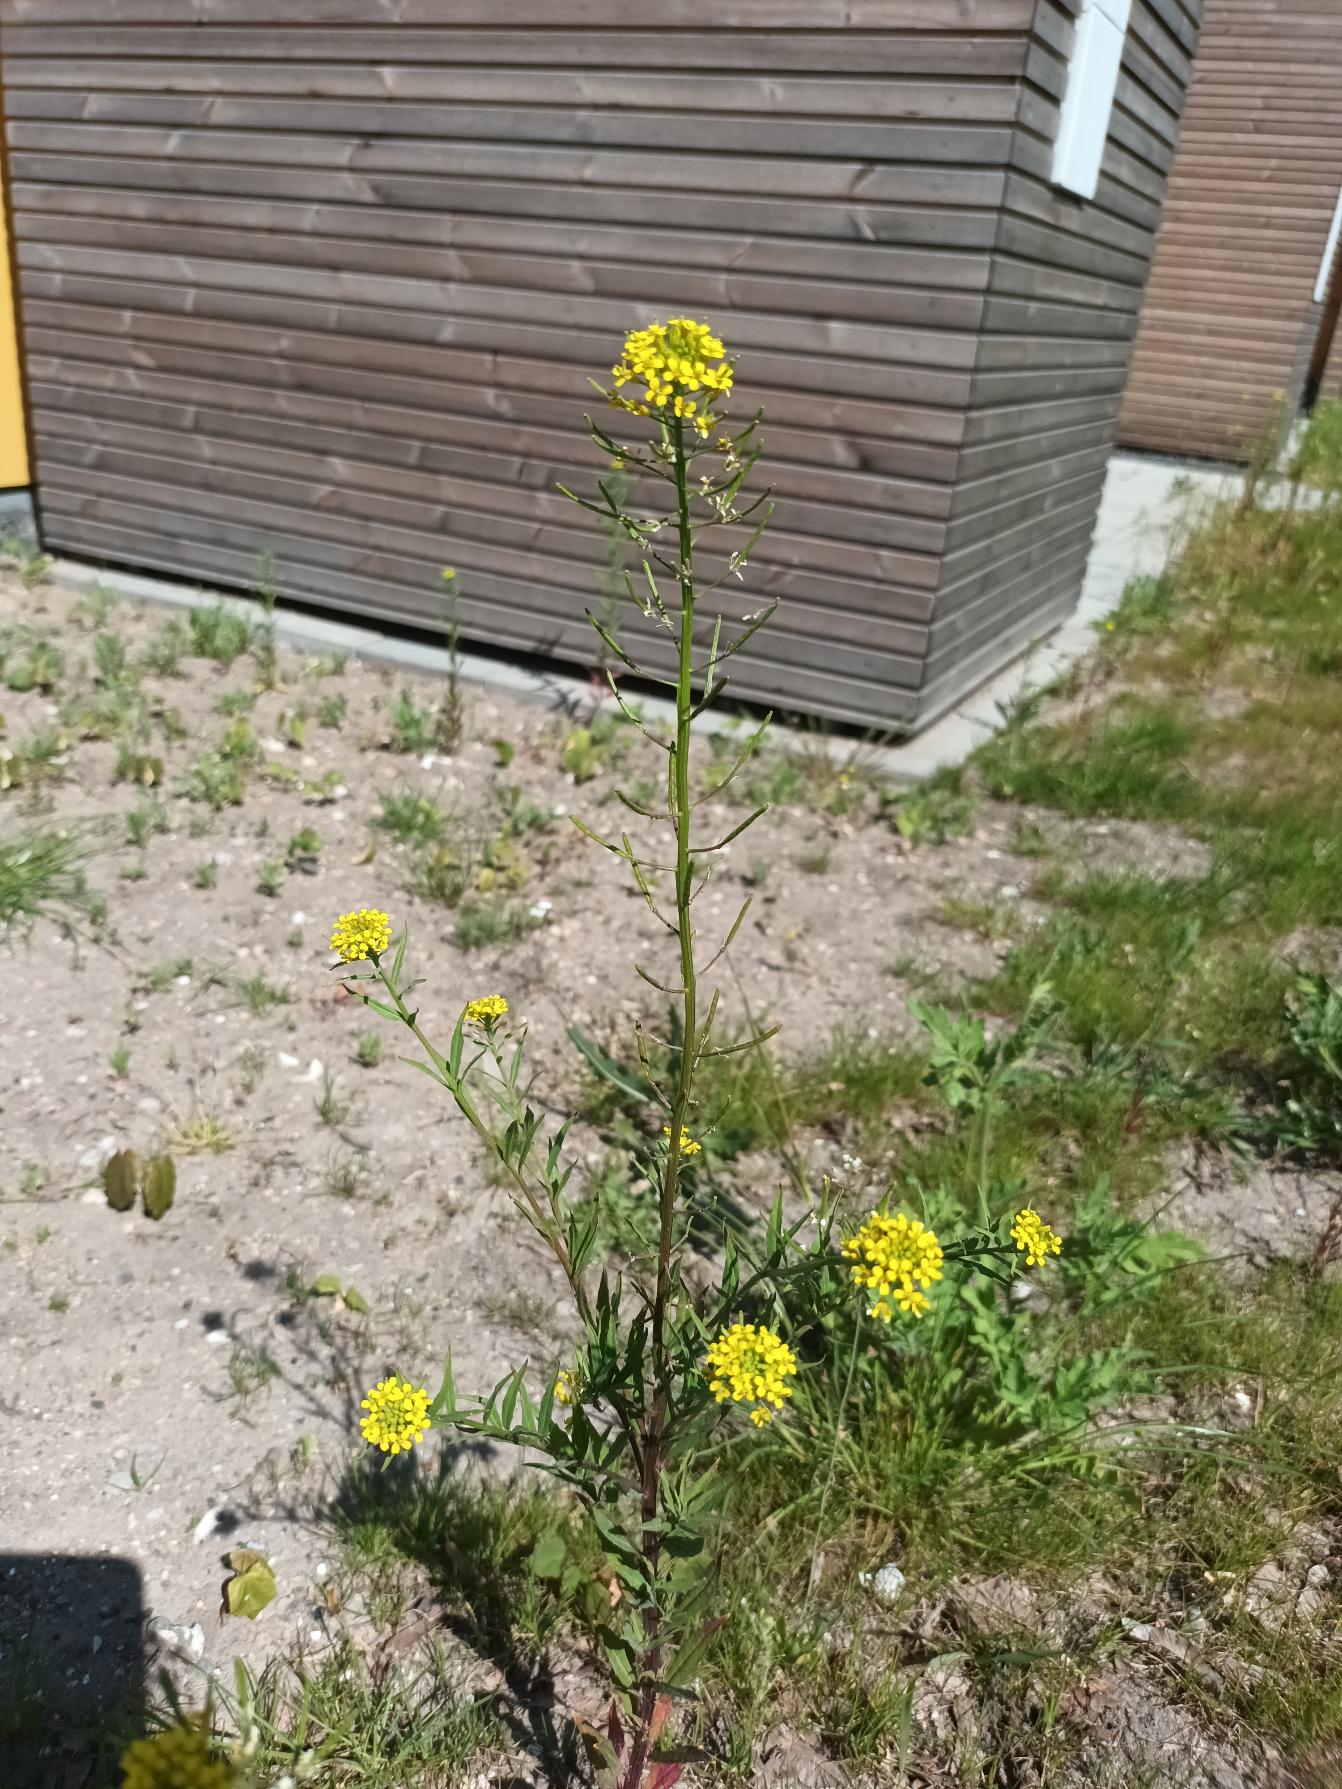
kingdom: Plantae
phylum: Tracheophyta
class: Magnoliopsida
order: Brassicales
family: Brassicaceae
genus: Erysimum
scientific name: Erysimum cheiranthoides
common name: Gyldenlak-hjørneklap
